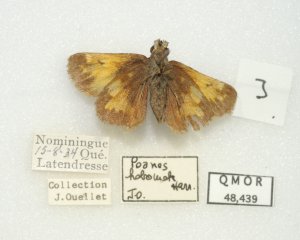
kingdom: Animalia
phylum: Arthropoda
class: Insecta
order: Lepidoptera
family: Hesperiidae
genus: Lon
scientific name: Lon hobomok
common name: Hobomok Skipper
